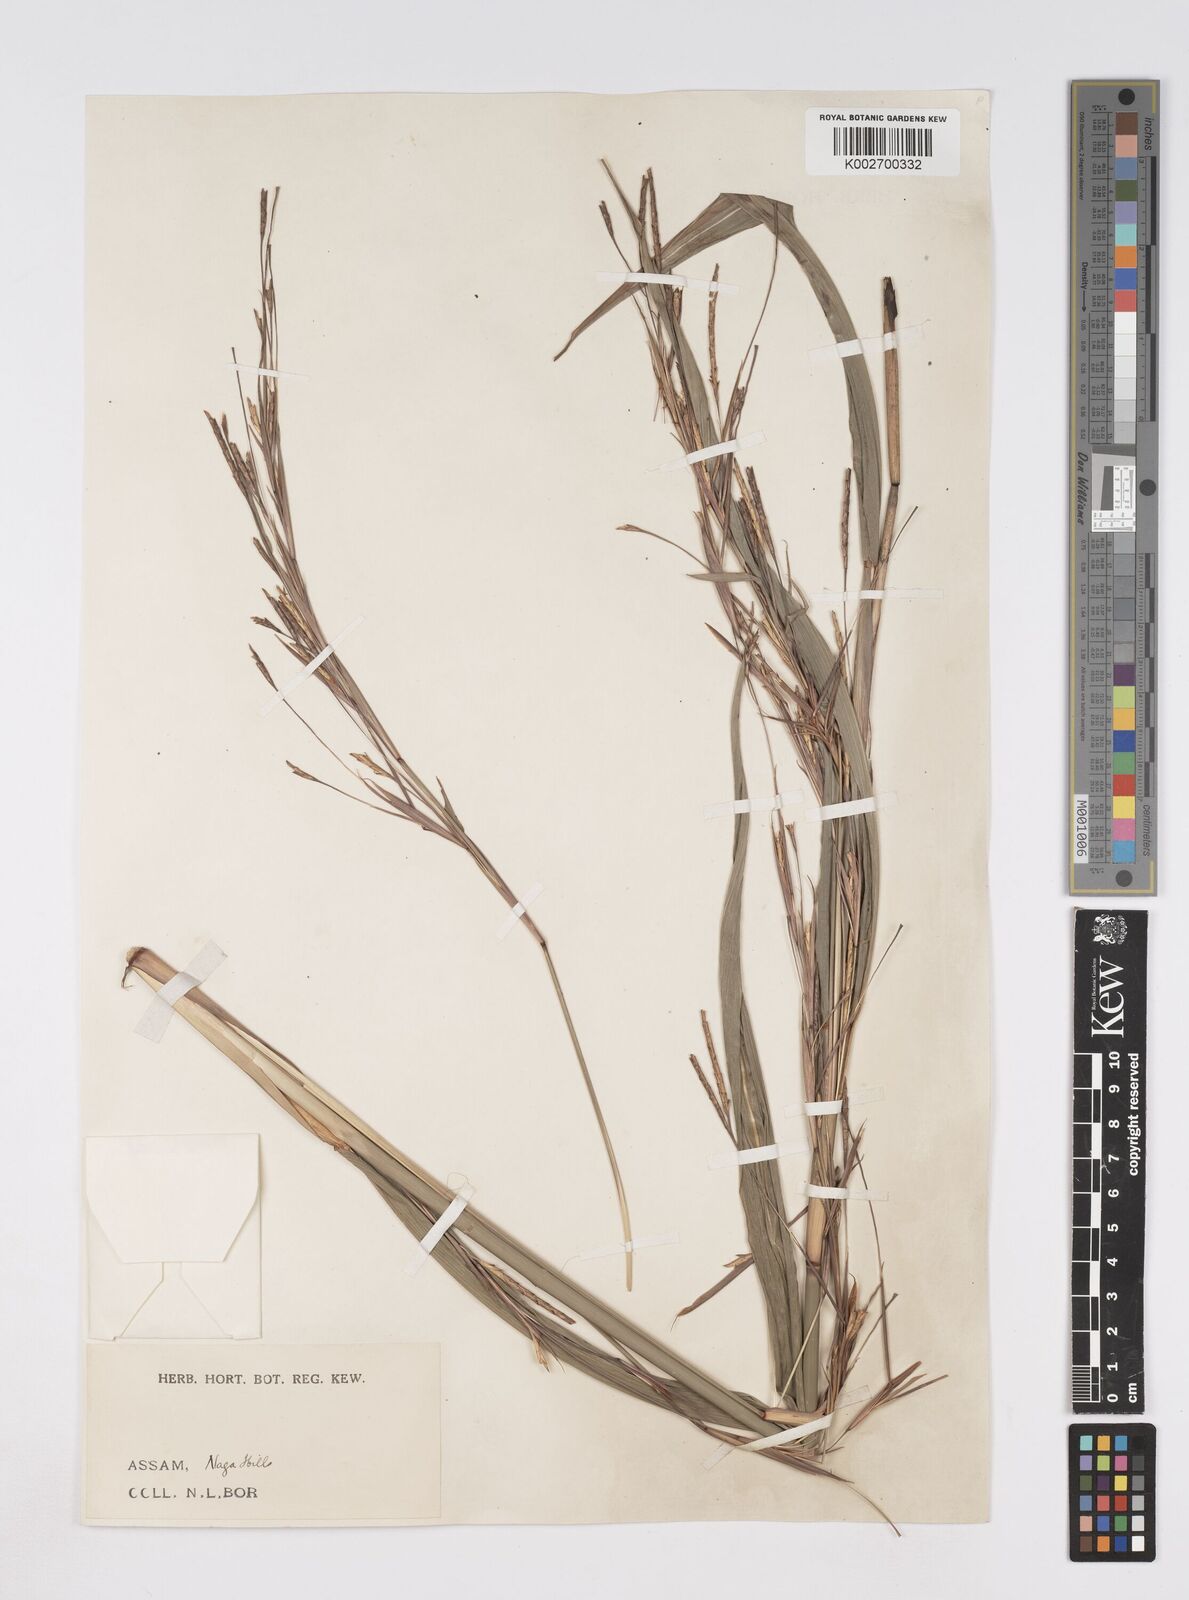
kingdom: Plantae
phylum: Tracheophyta
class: Liliopsida
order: Poales
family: Poaceae
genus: Rottboellia
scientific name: Rottboellia striata
